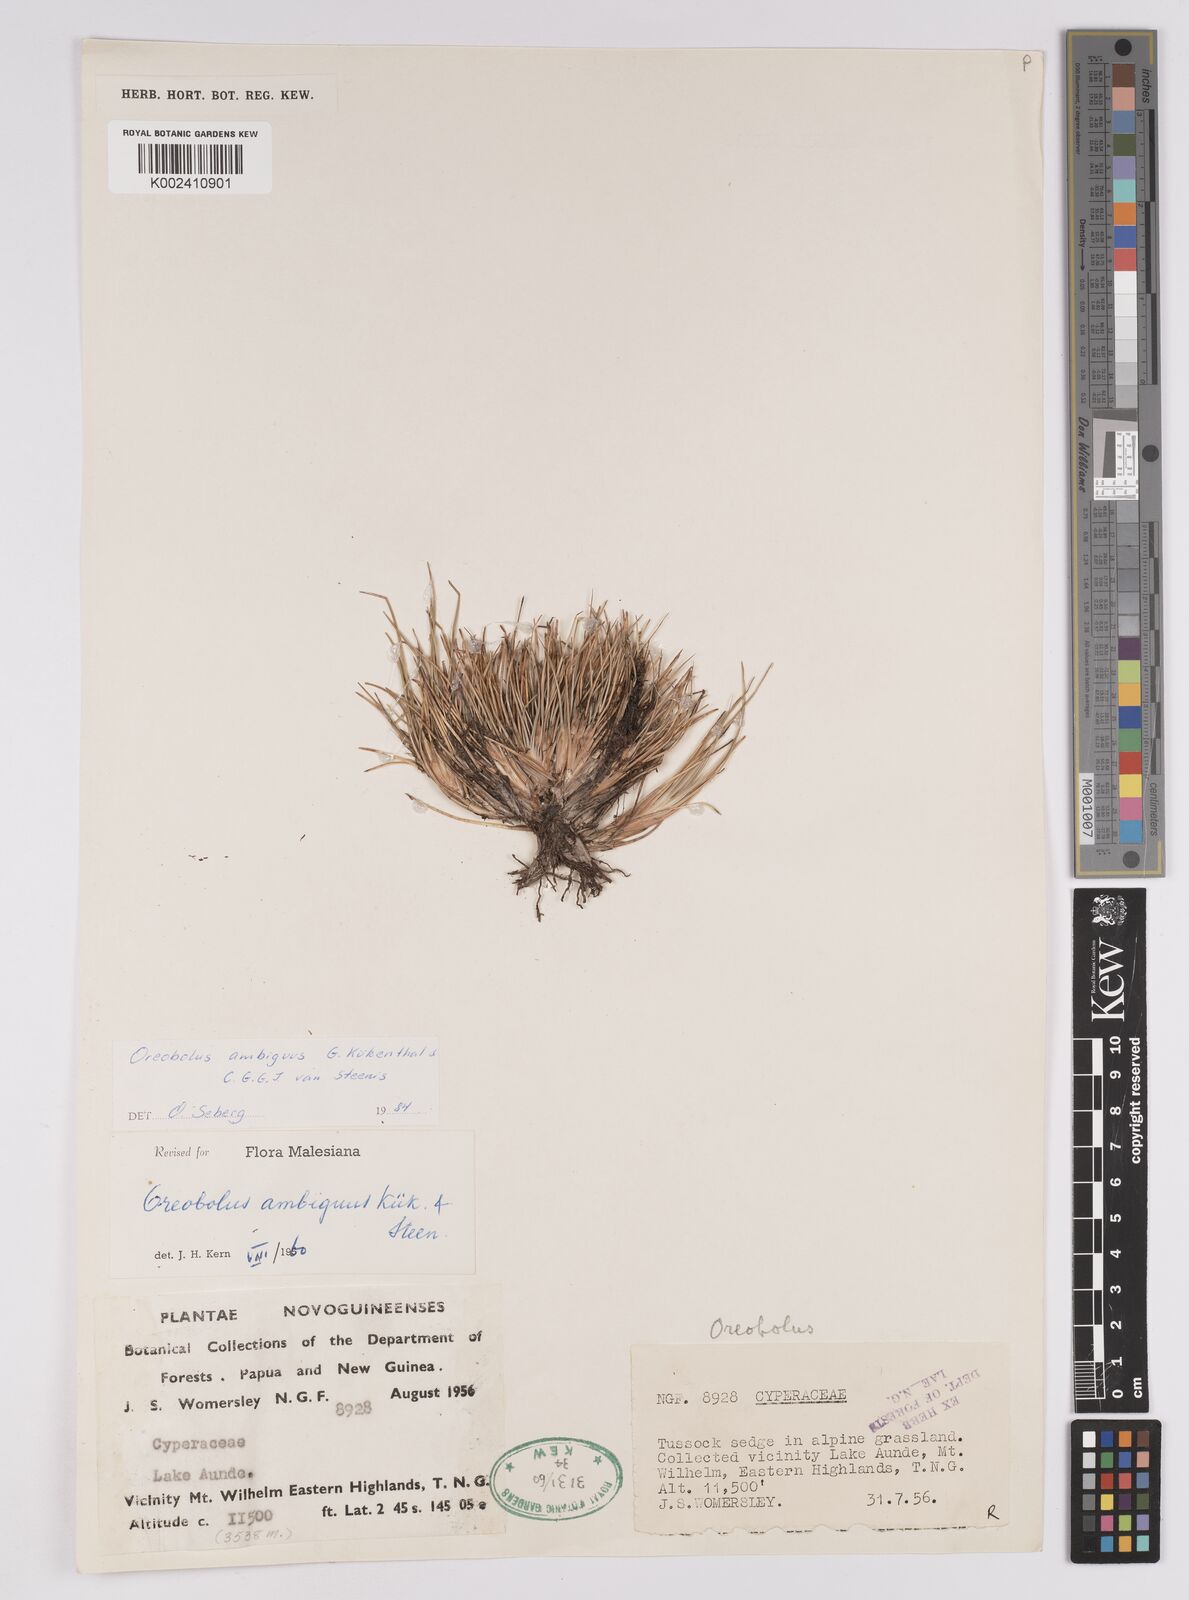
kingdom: Plantae
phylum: Tracheophyta
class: Liliopsida
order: Poales
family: Cyperaceae
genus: Oreobolus
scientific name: Oreobolus ambiguus
